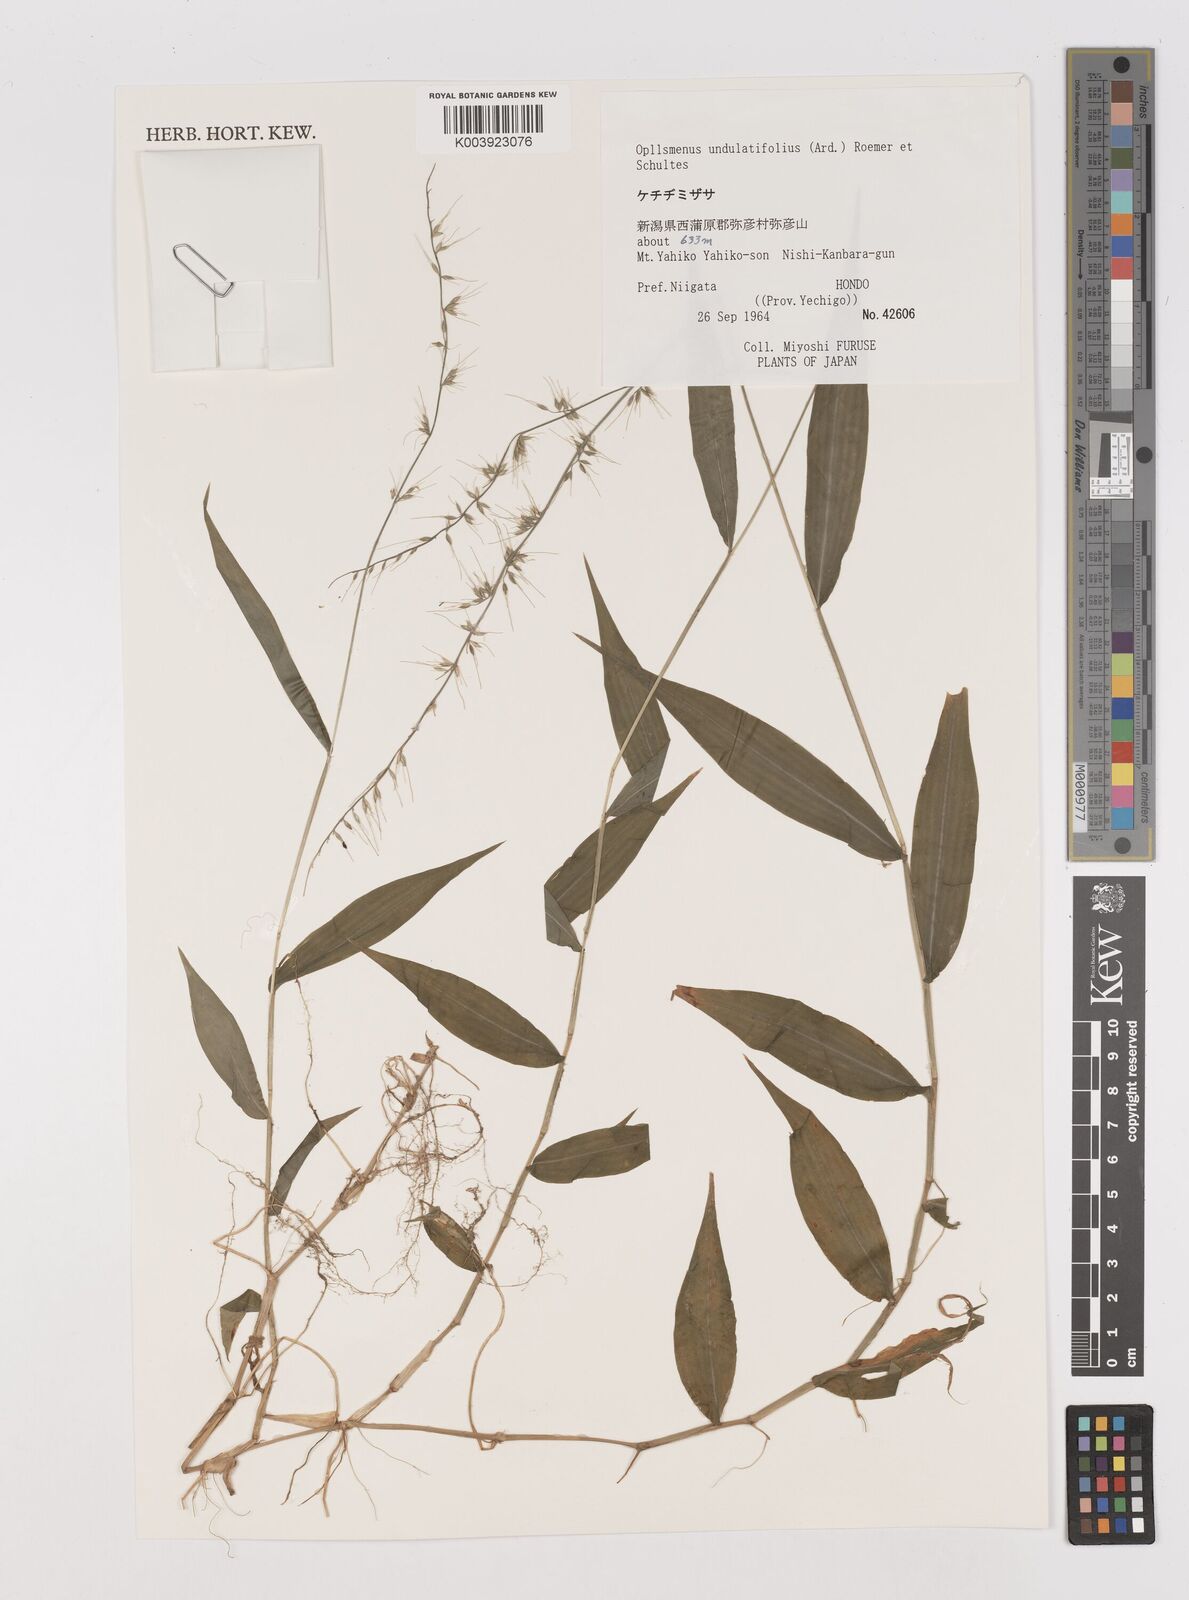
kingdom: Plantae
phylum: Tracheophyta
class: Liliopsida
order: Poales
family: Poaceae
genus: Oplismenus
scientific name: Oplismenus undulatifolius
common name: Wavyleaf basketgrass
